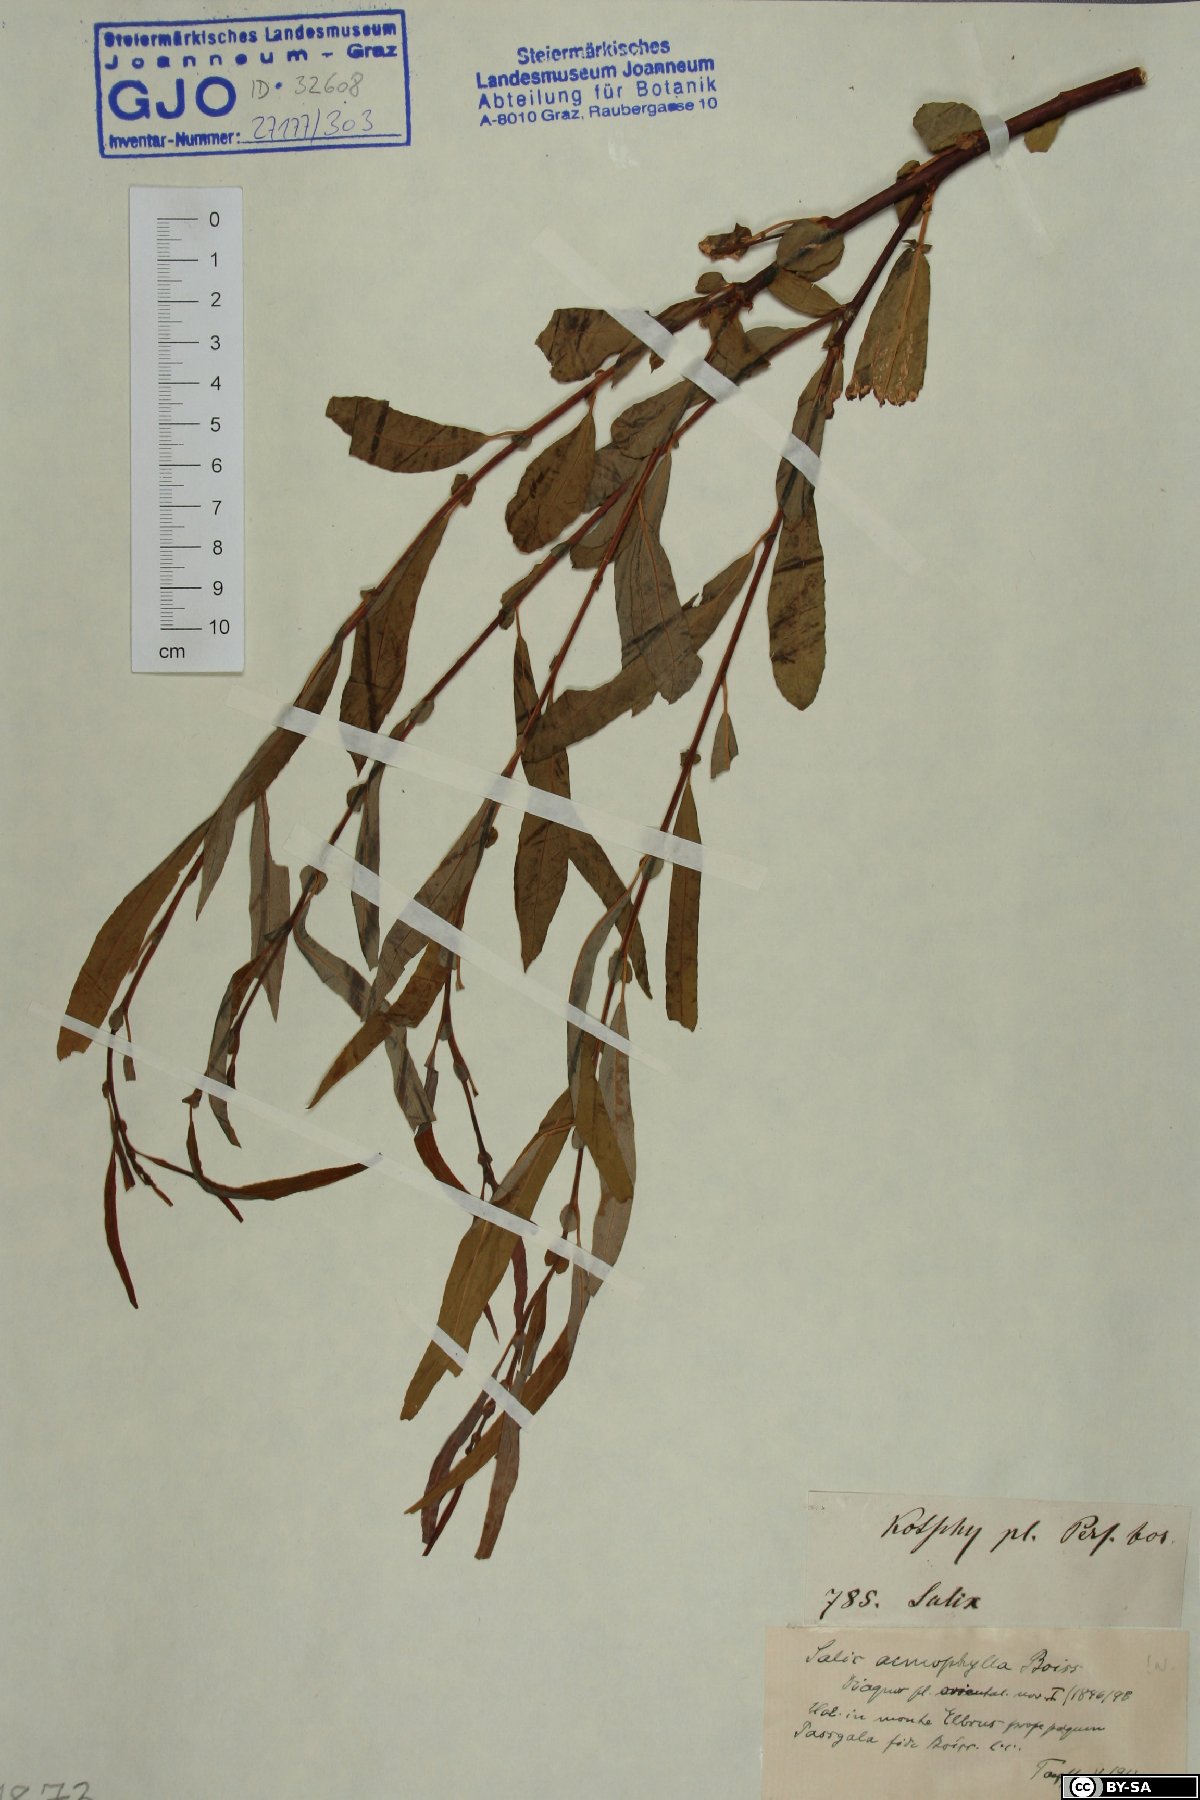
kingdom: Plantae
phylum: Tracheophyta
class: Magnoliopsida
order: Malpighiales
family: Salicaceae
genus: Salix
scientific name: Salix acmophylla
